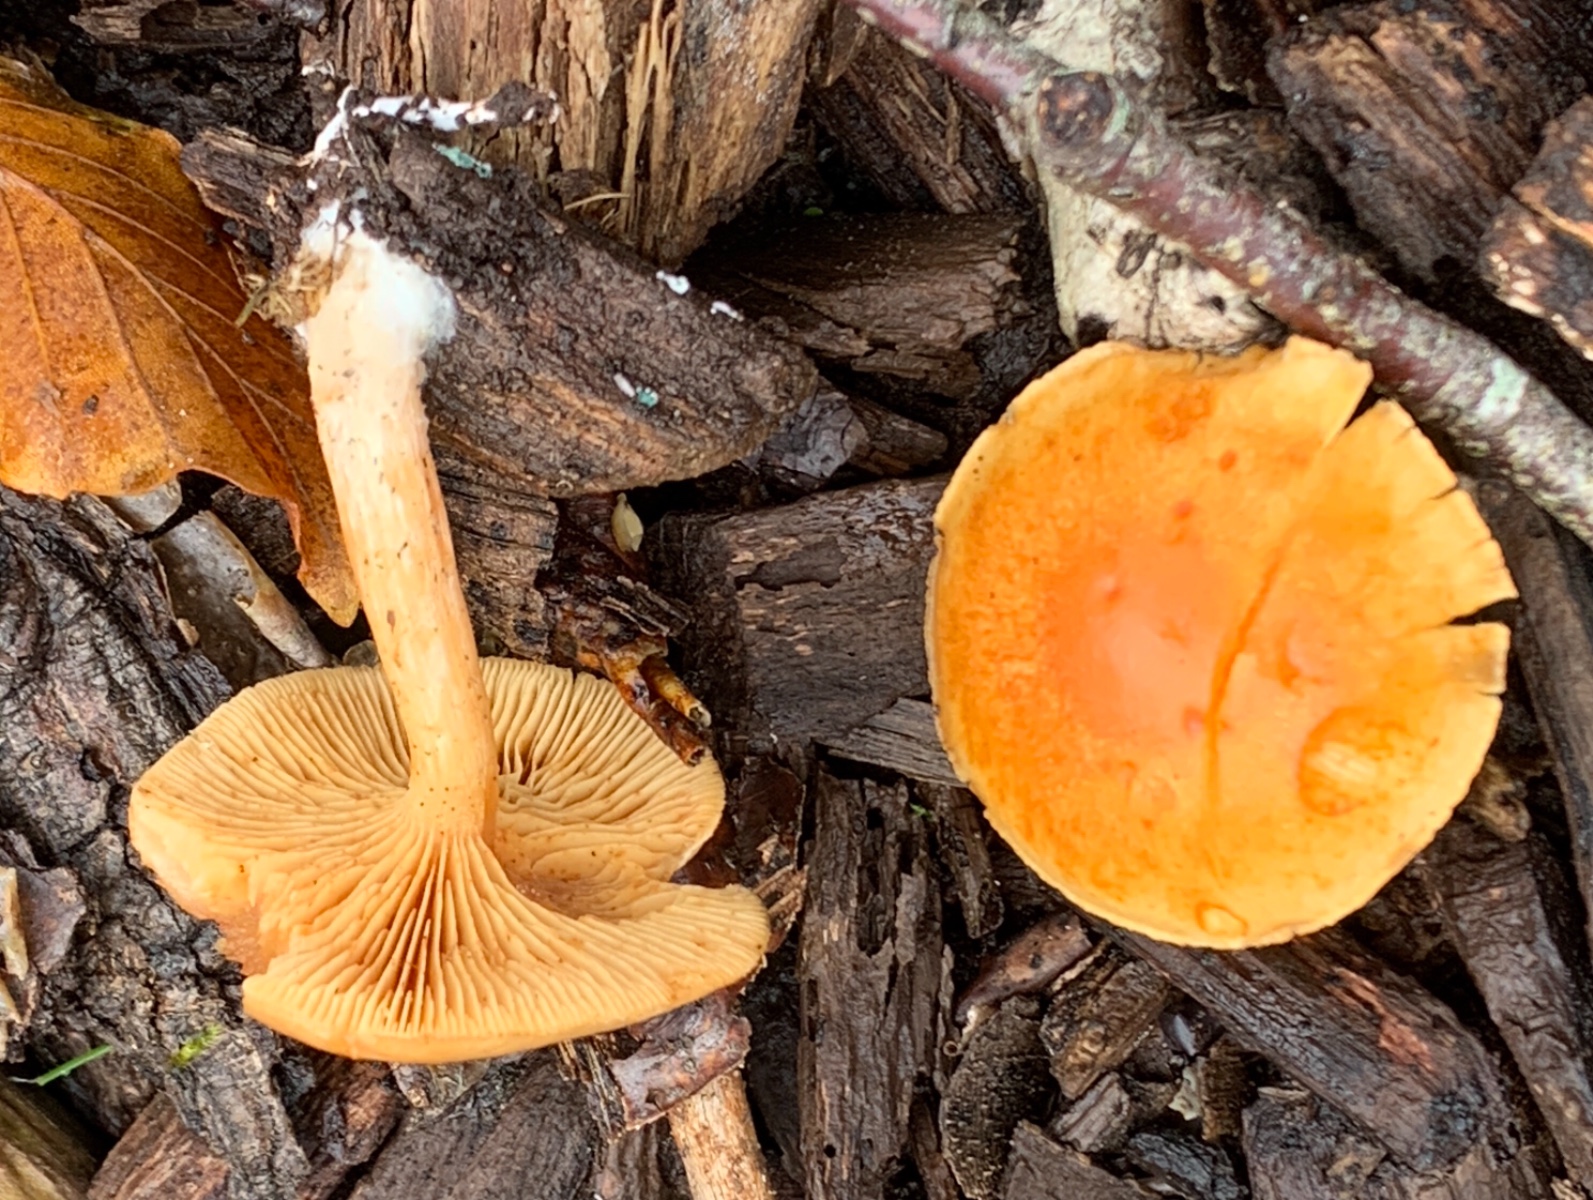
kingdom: Fungi
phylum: Basidiomycota
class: Agaricomycetes
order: Agaricales
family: Hymenogastraceae
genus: Gymnopilus
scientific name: Gymnopilus penetrans
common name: plettet flammehat
